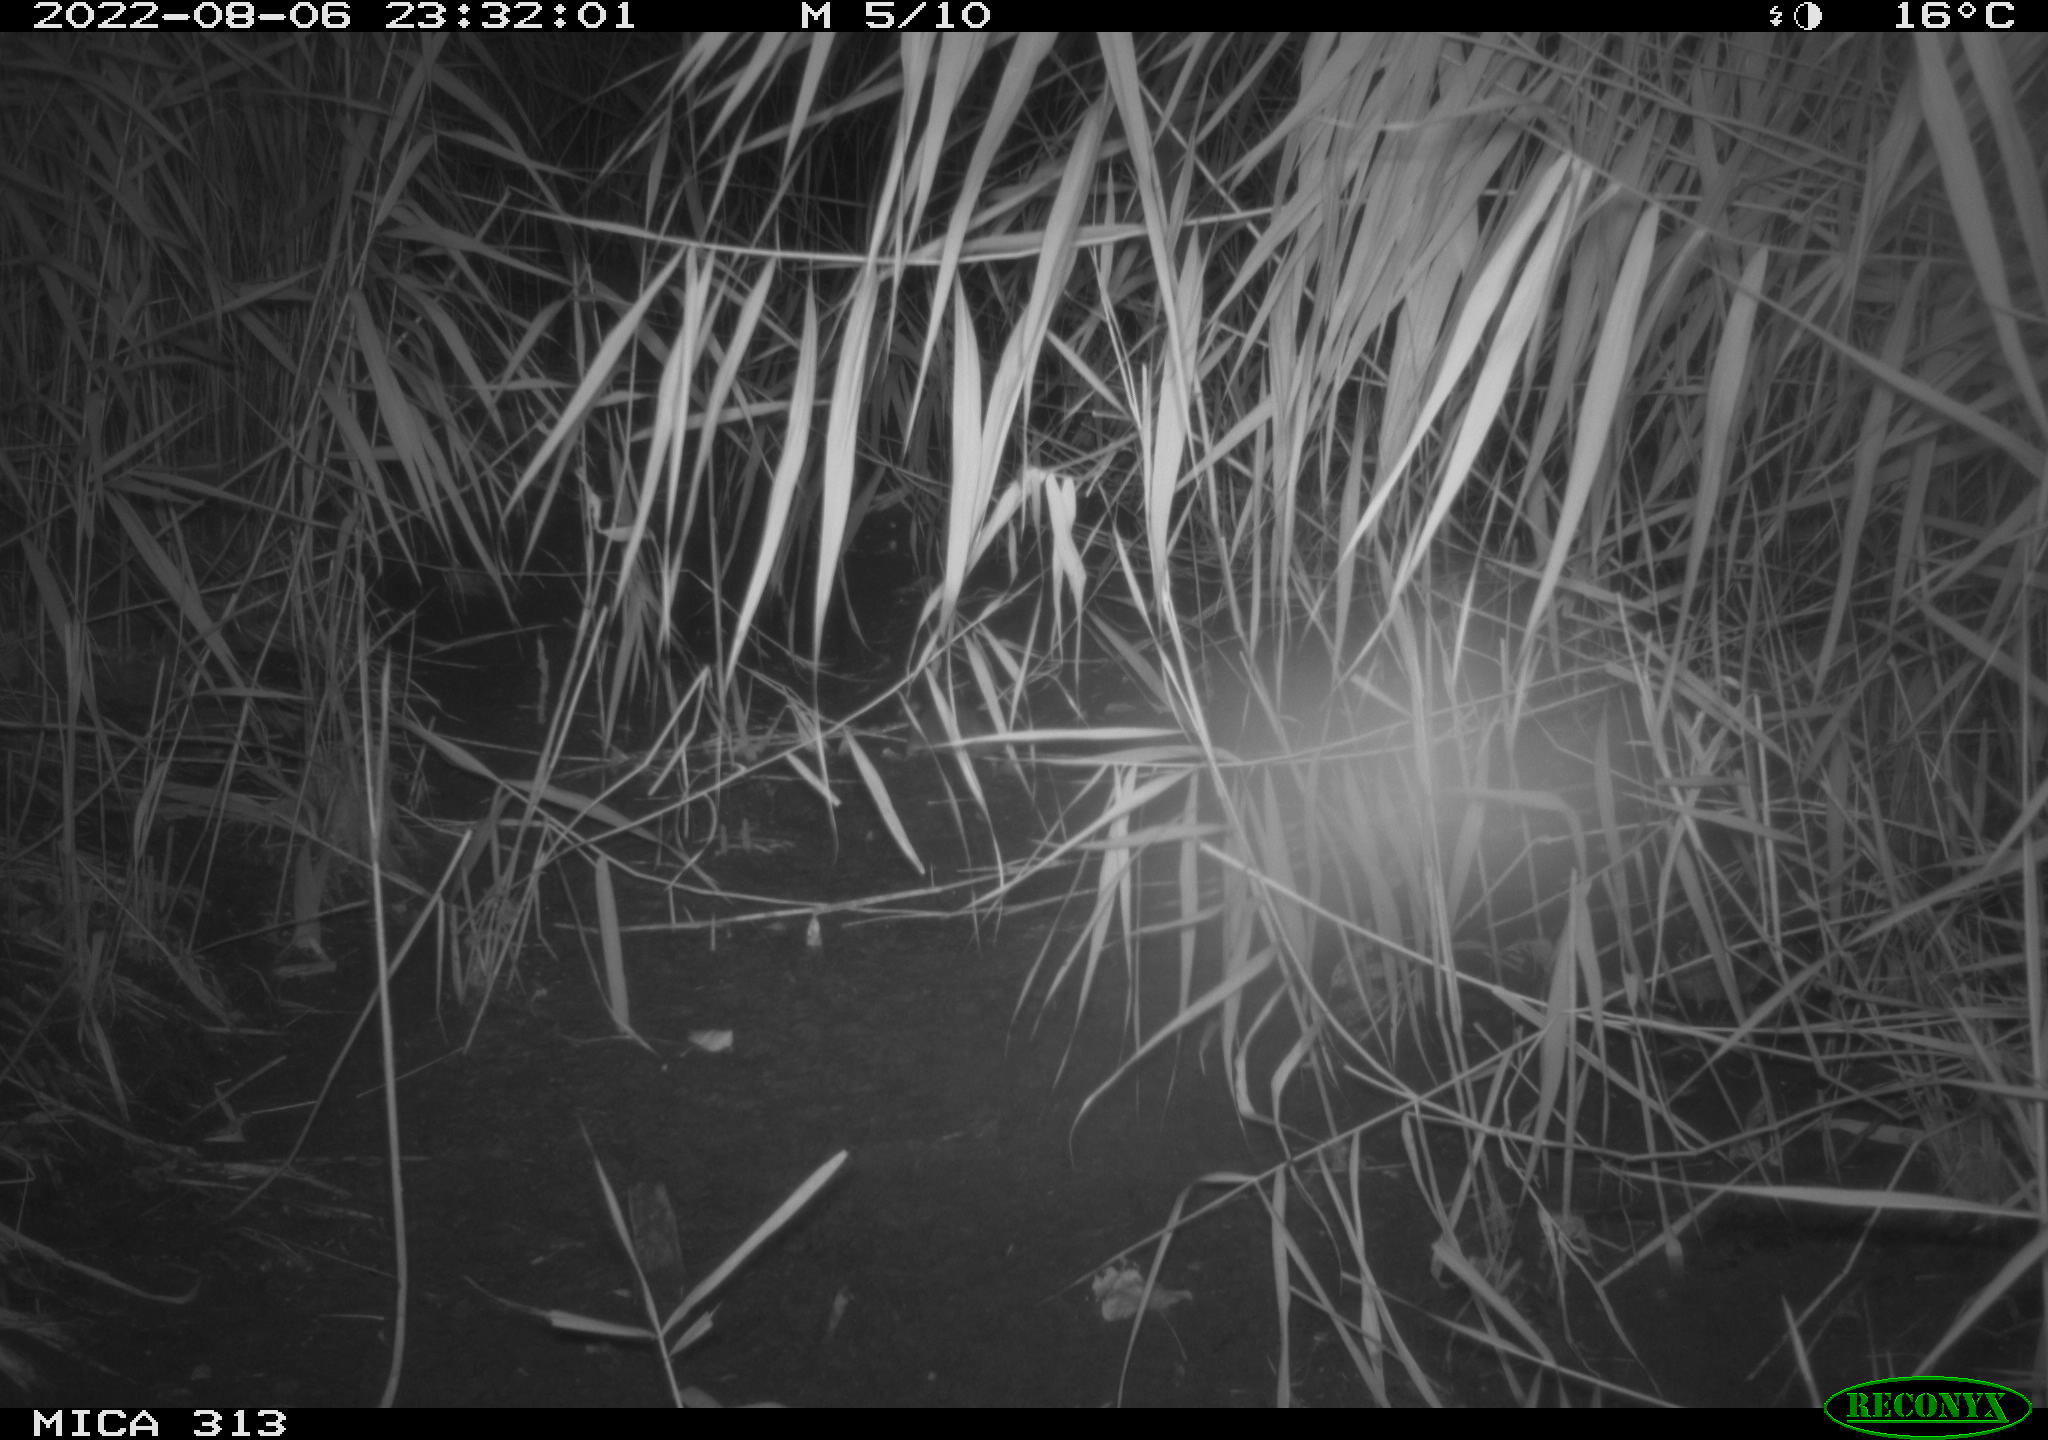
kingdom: Animalia
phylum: Chordata
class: Mammalia
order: Rodentia
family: Muridae
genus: Rattus
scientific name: Rattus norvegicus
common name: Brown rat
